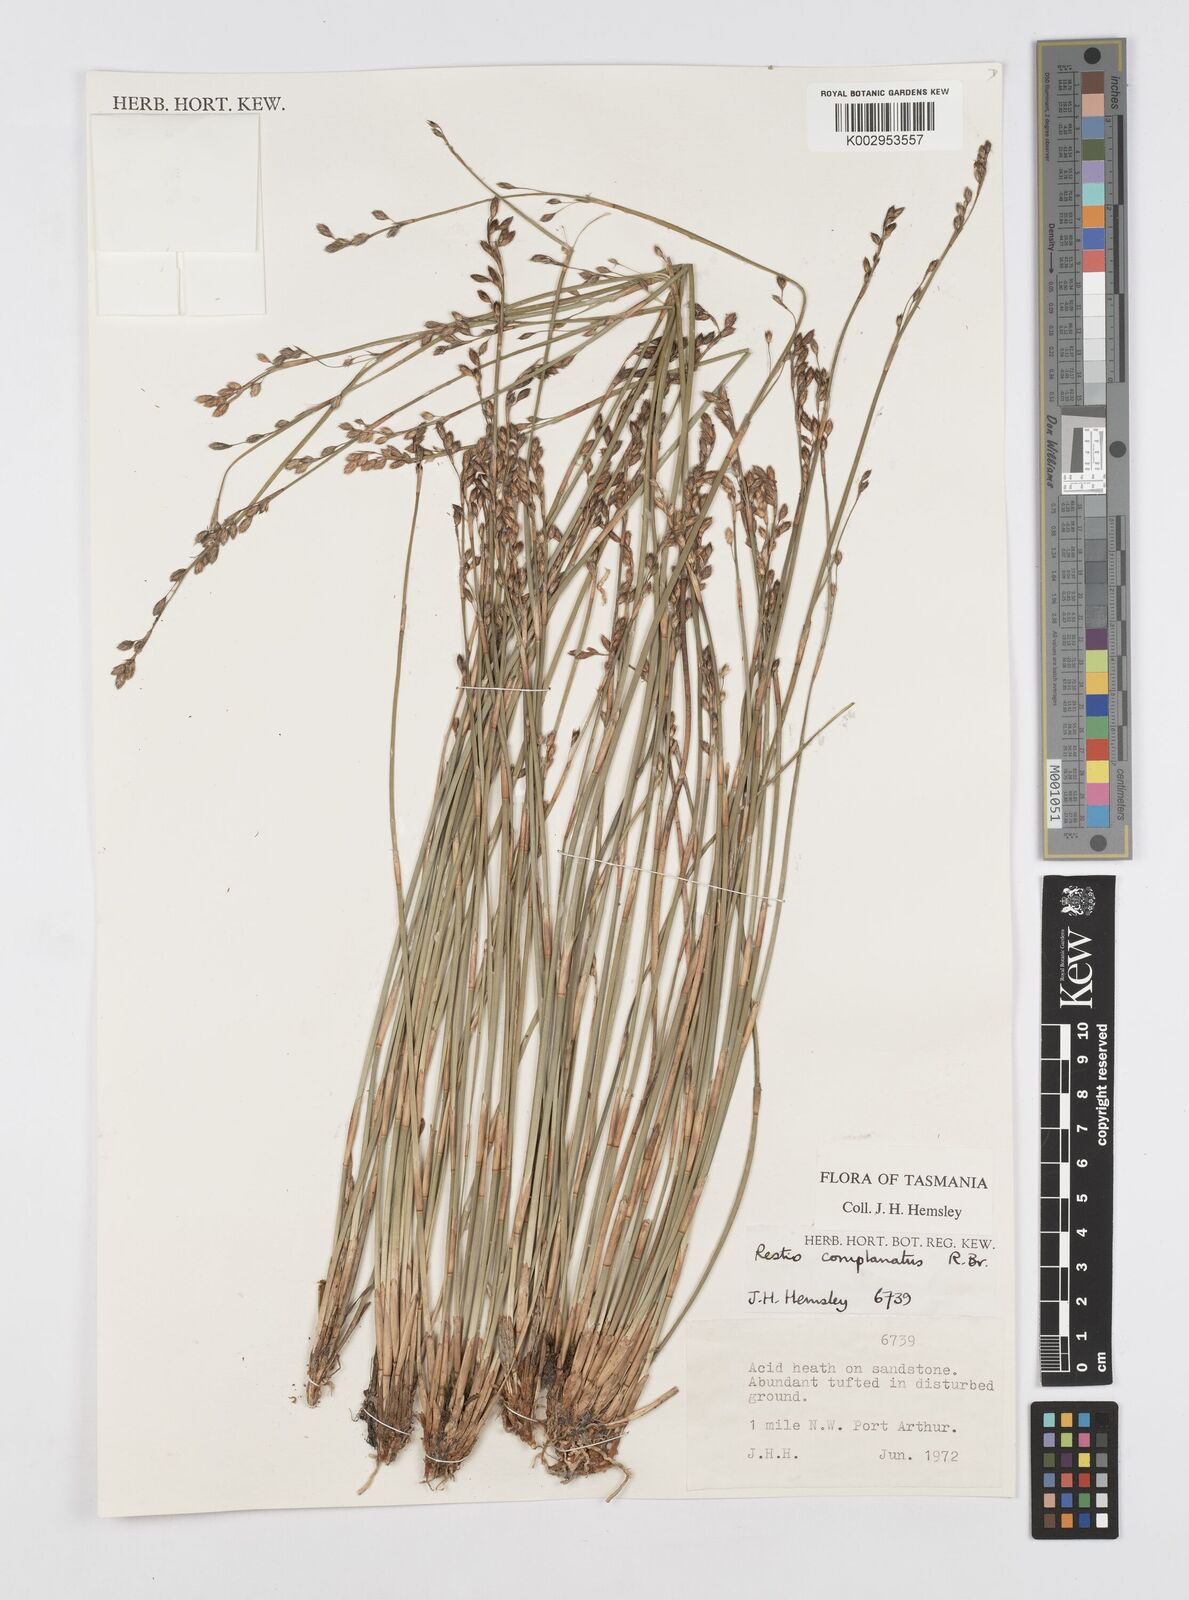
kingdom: Plantae
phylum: Tracheophyta
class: Liliopsida
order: Poales
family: Restionaceae
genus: Eurychorda
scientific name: Eurychorda complanata
